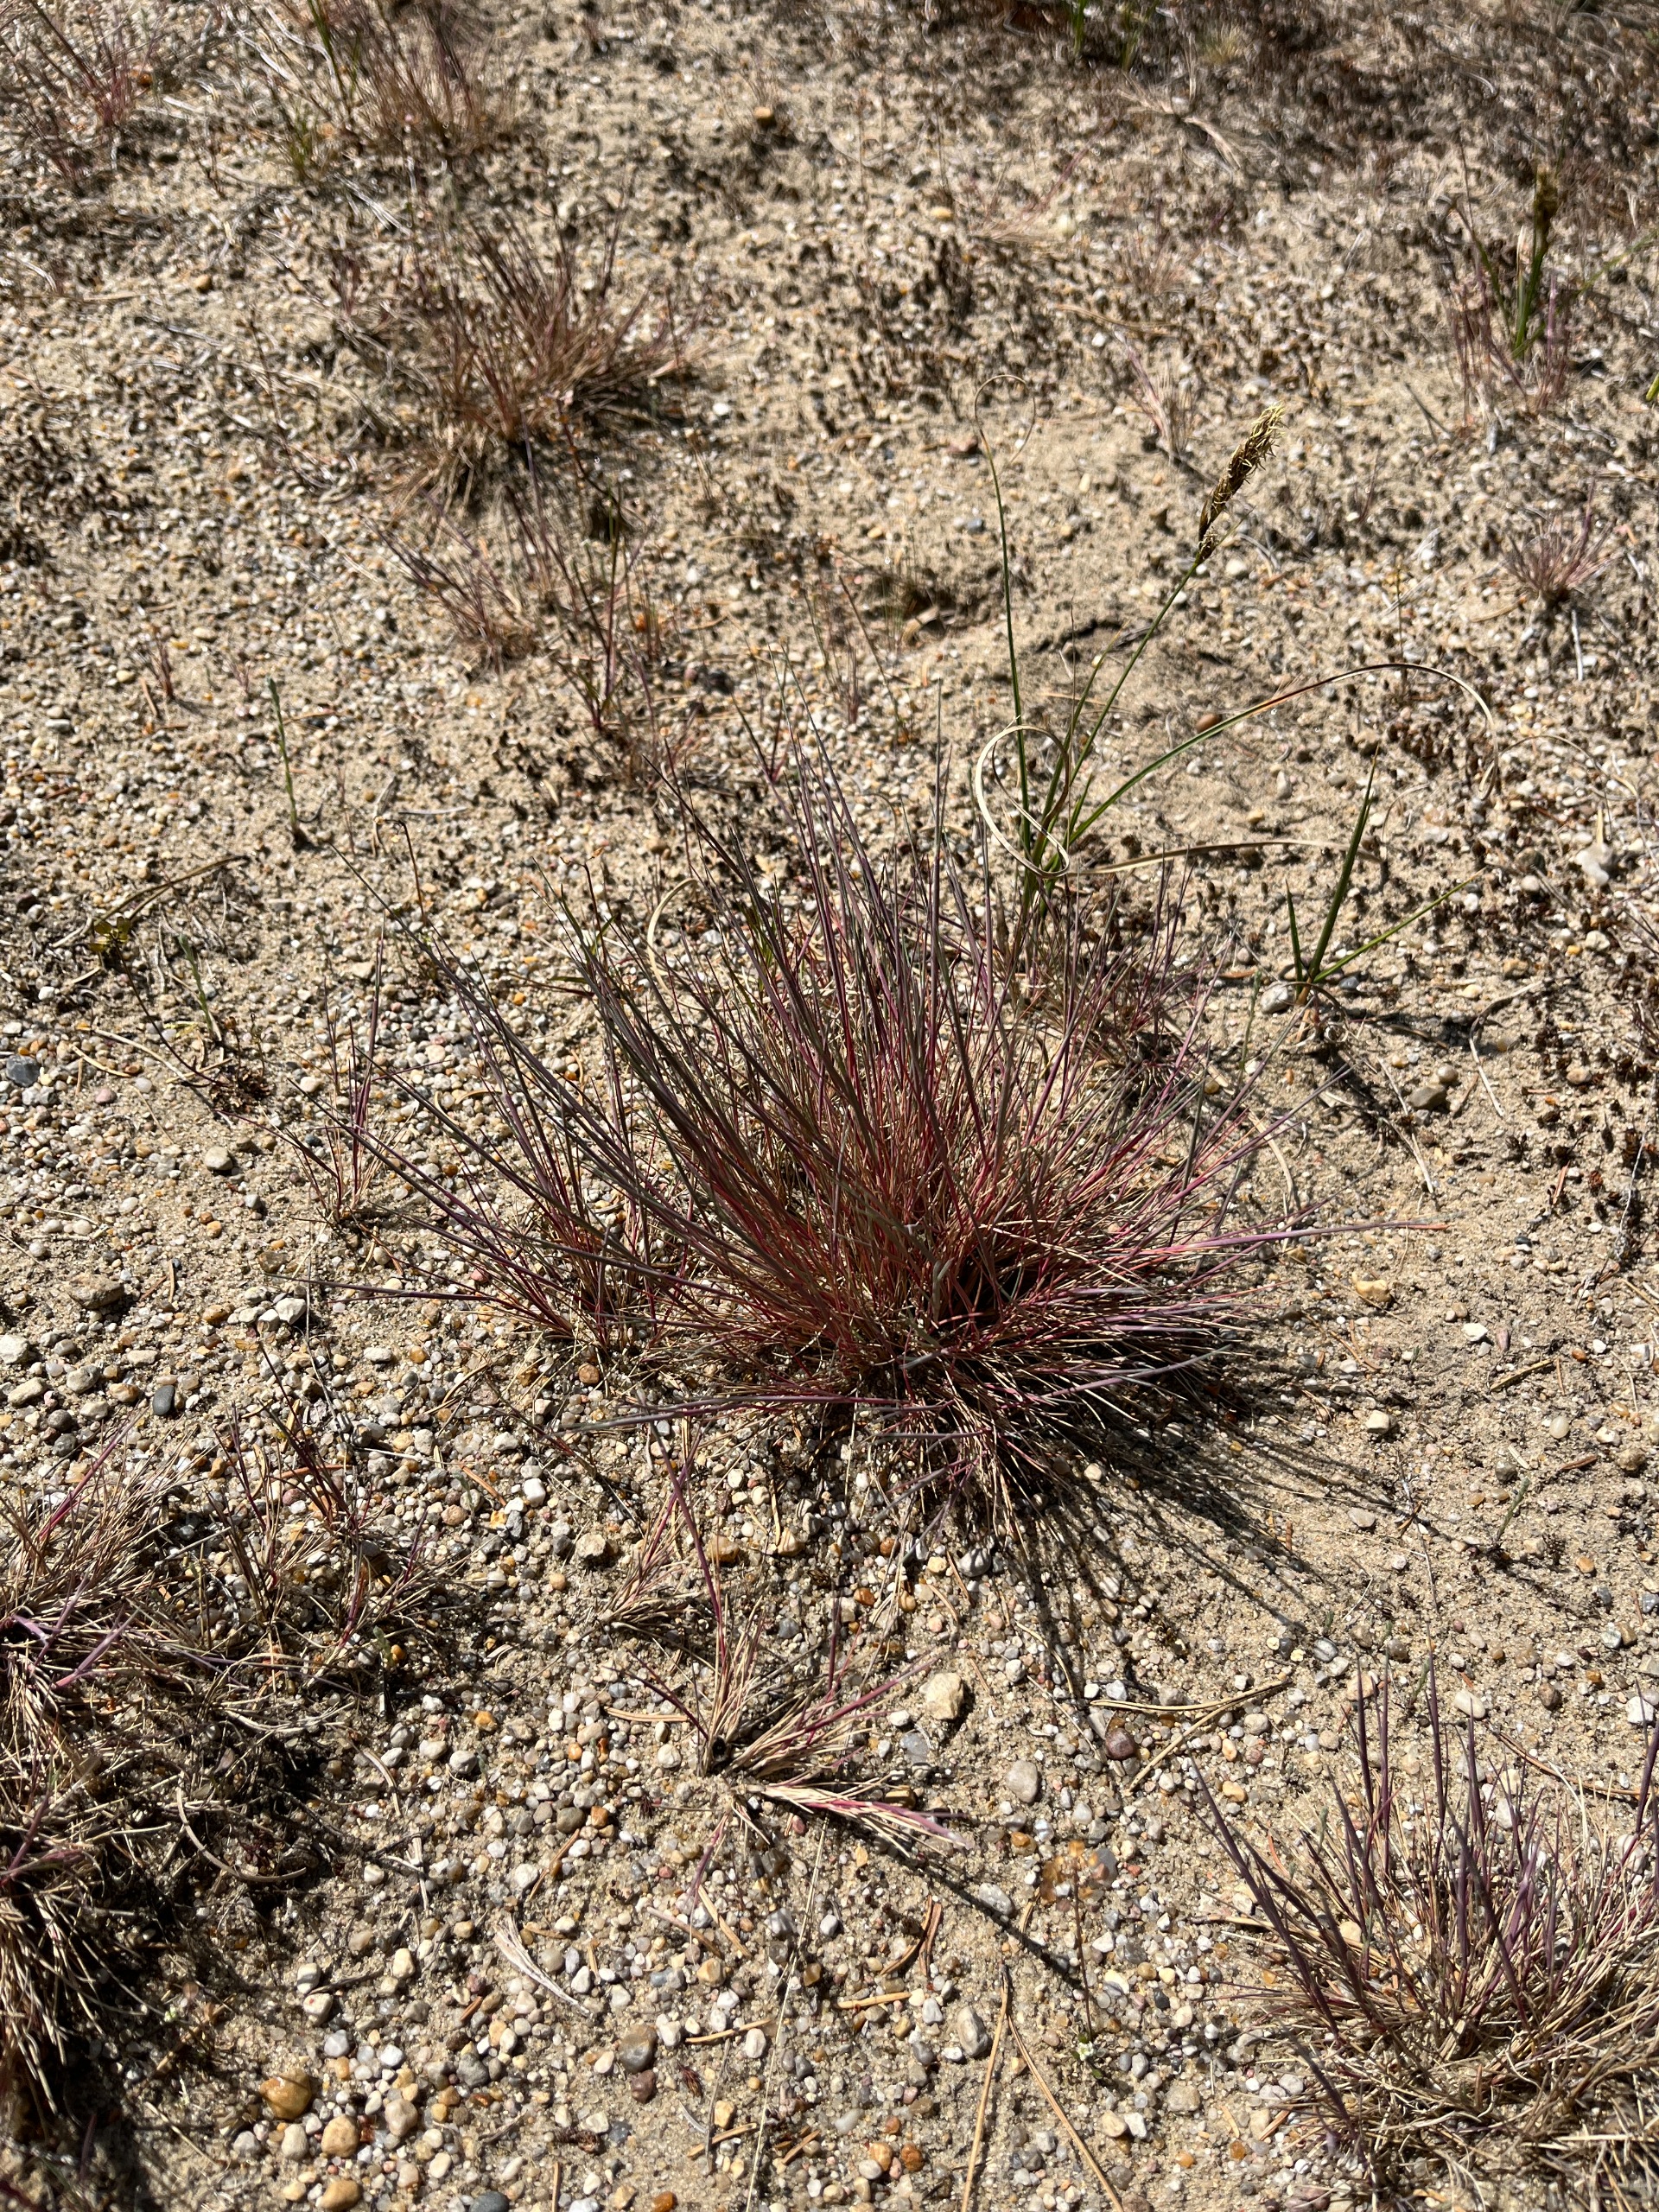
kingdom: Plantae
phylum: Tracheophyta
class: Liliopsida
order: Poales
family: Poaceae
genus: Corynephorus
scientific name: Corynephorus canescens
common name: Sandskæg
